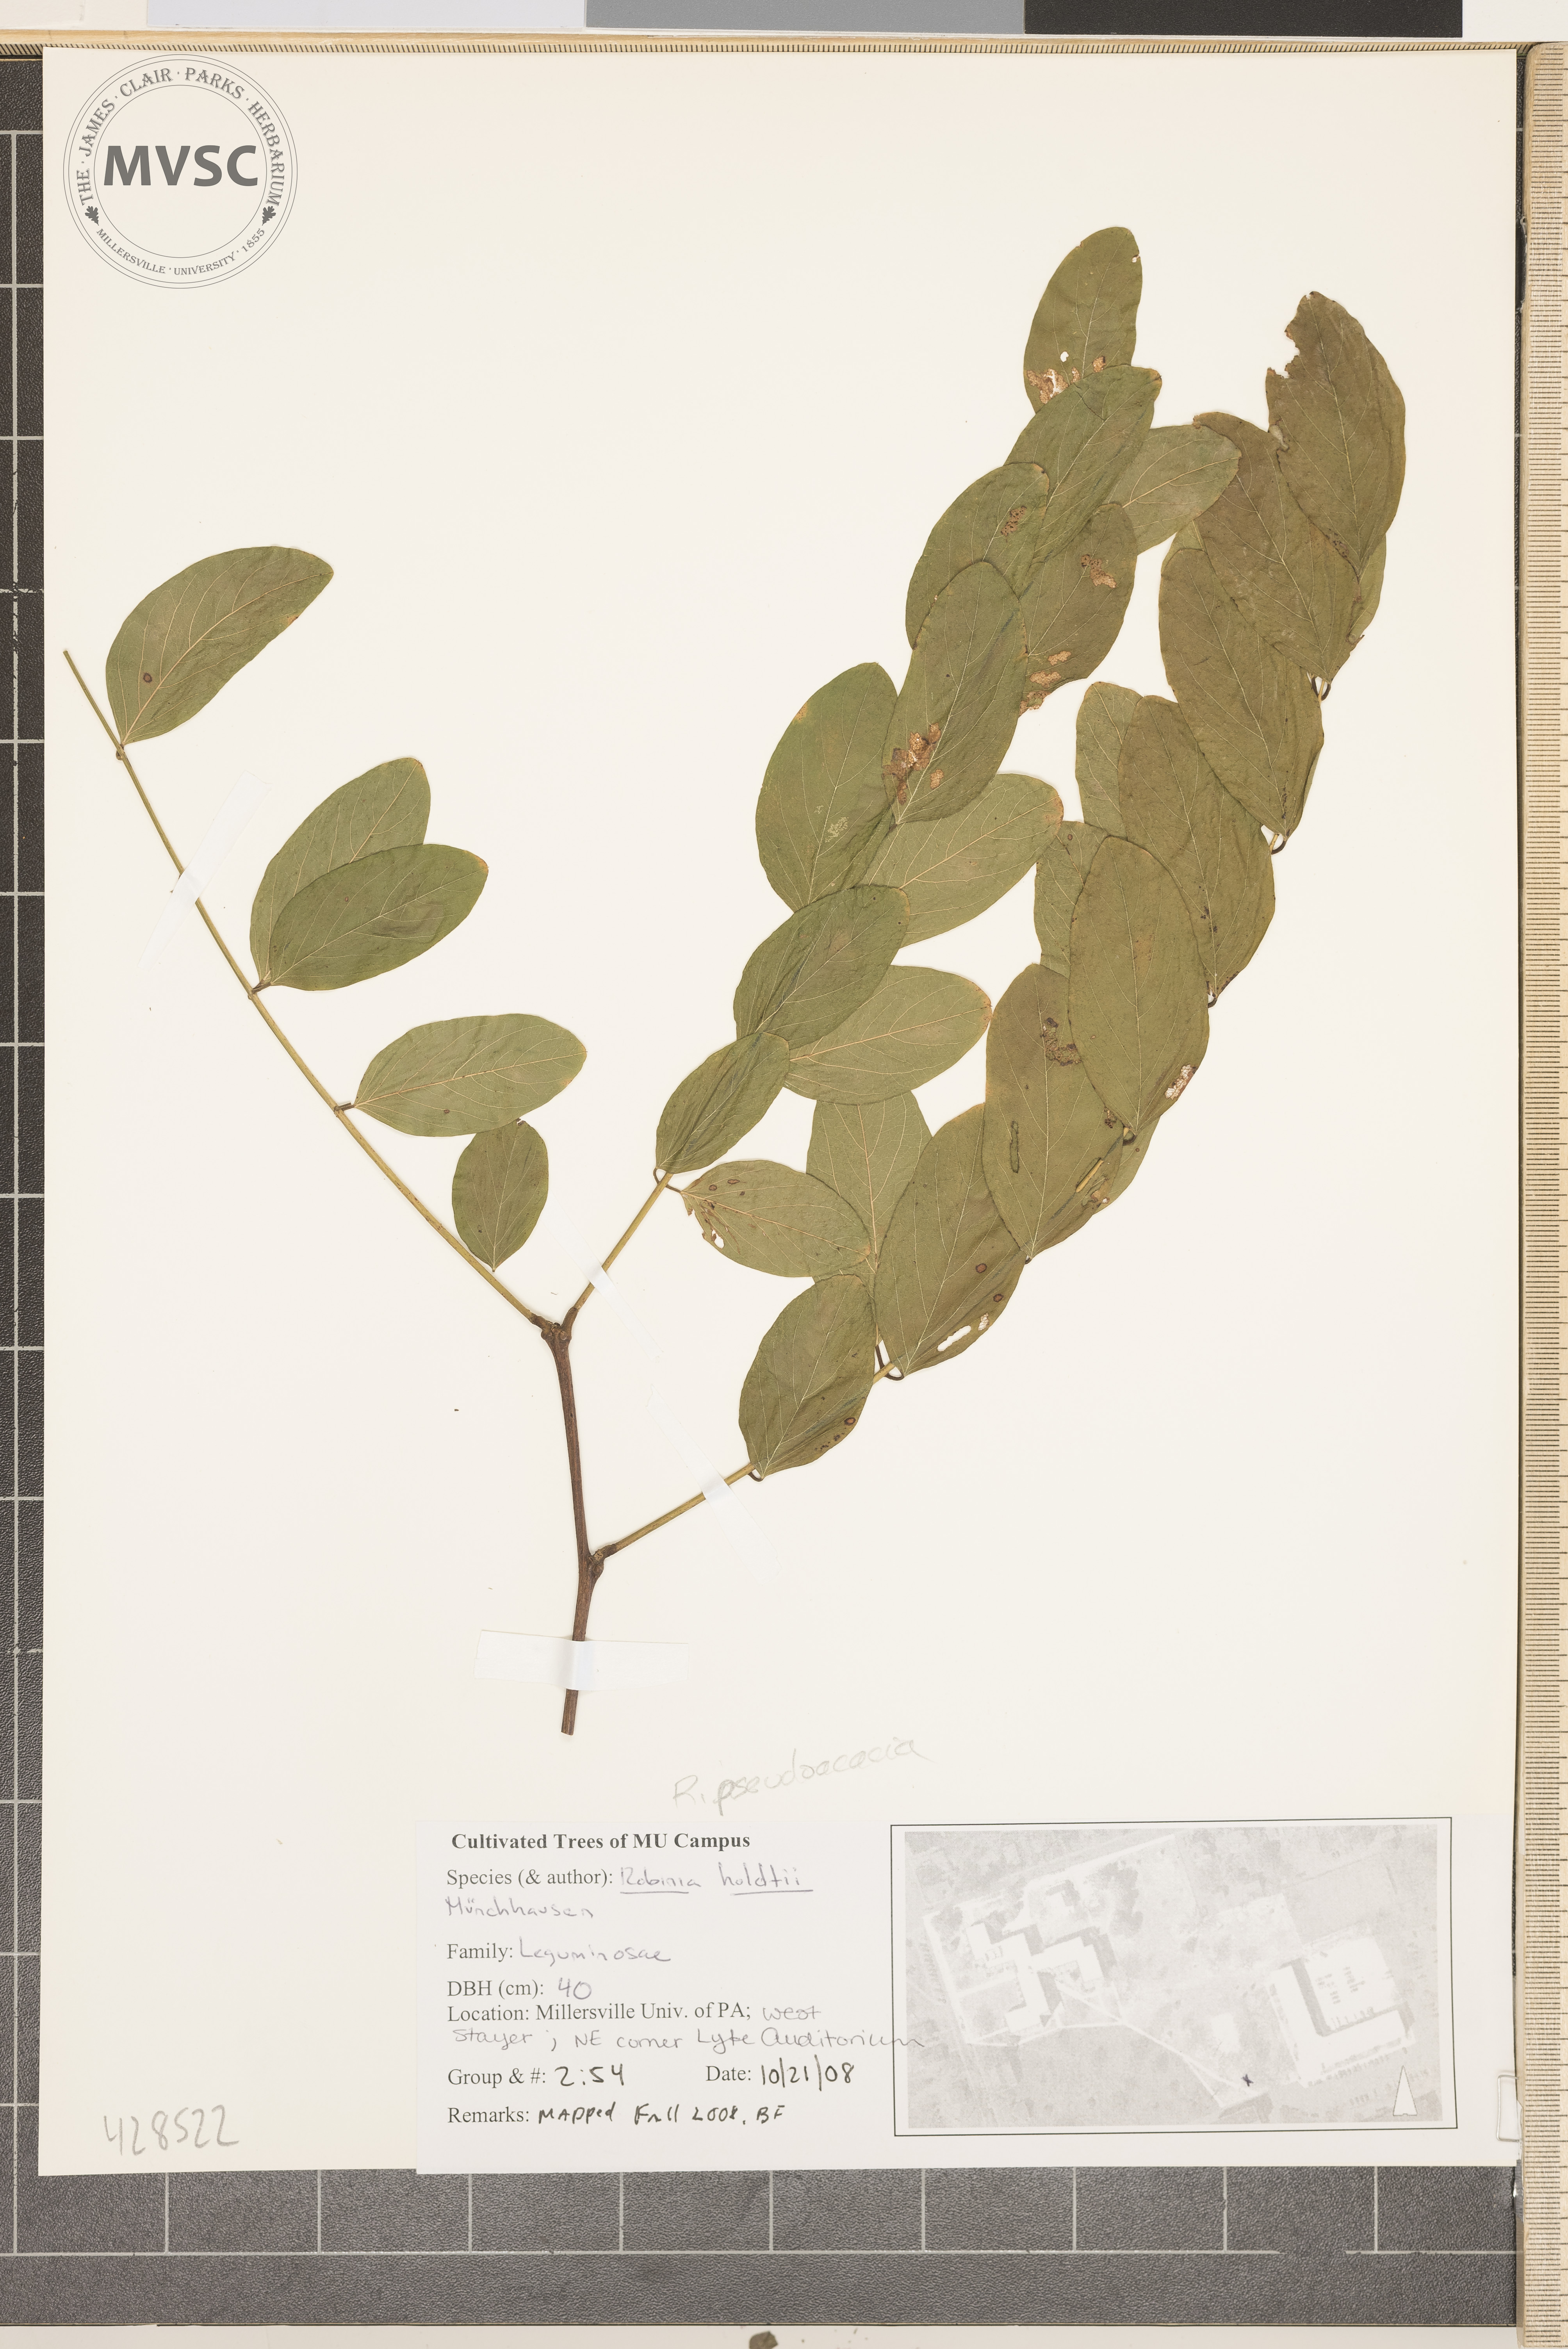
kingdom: Plantae
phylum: Tracheophyta
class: Magnoliopsida
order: Fabales
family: Fabaceae
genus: Robinia
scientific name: Robinia pseudoacacia
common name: Black locust
